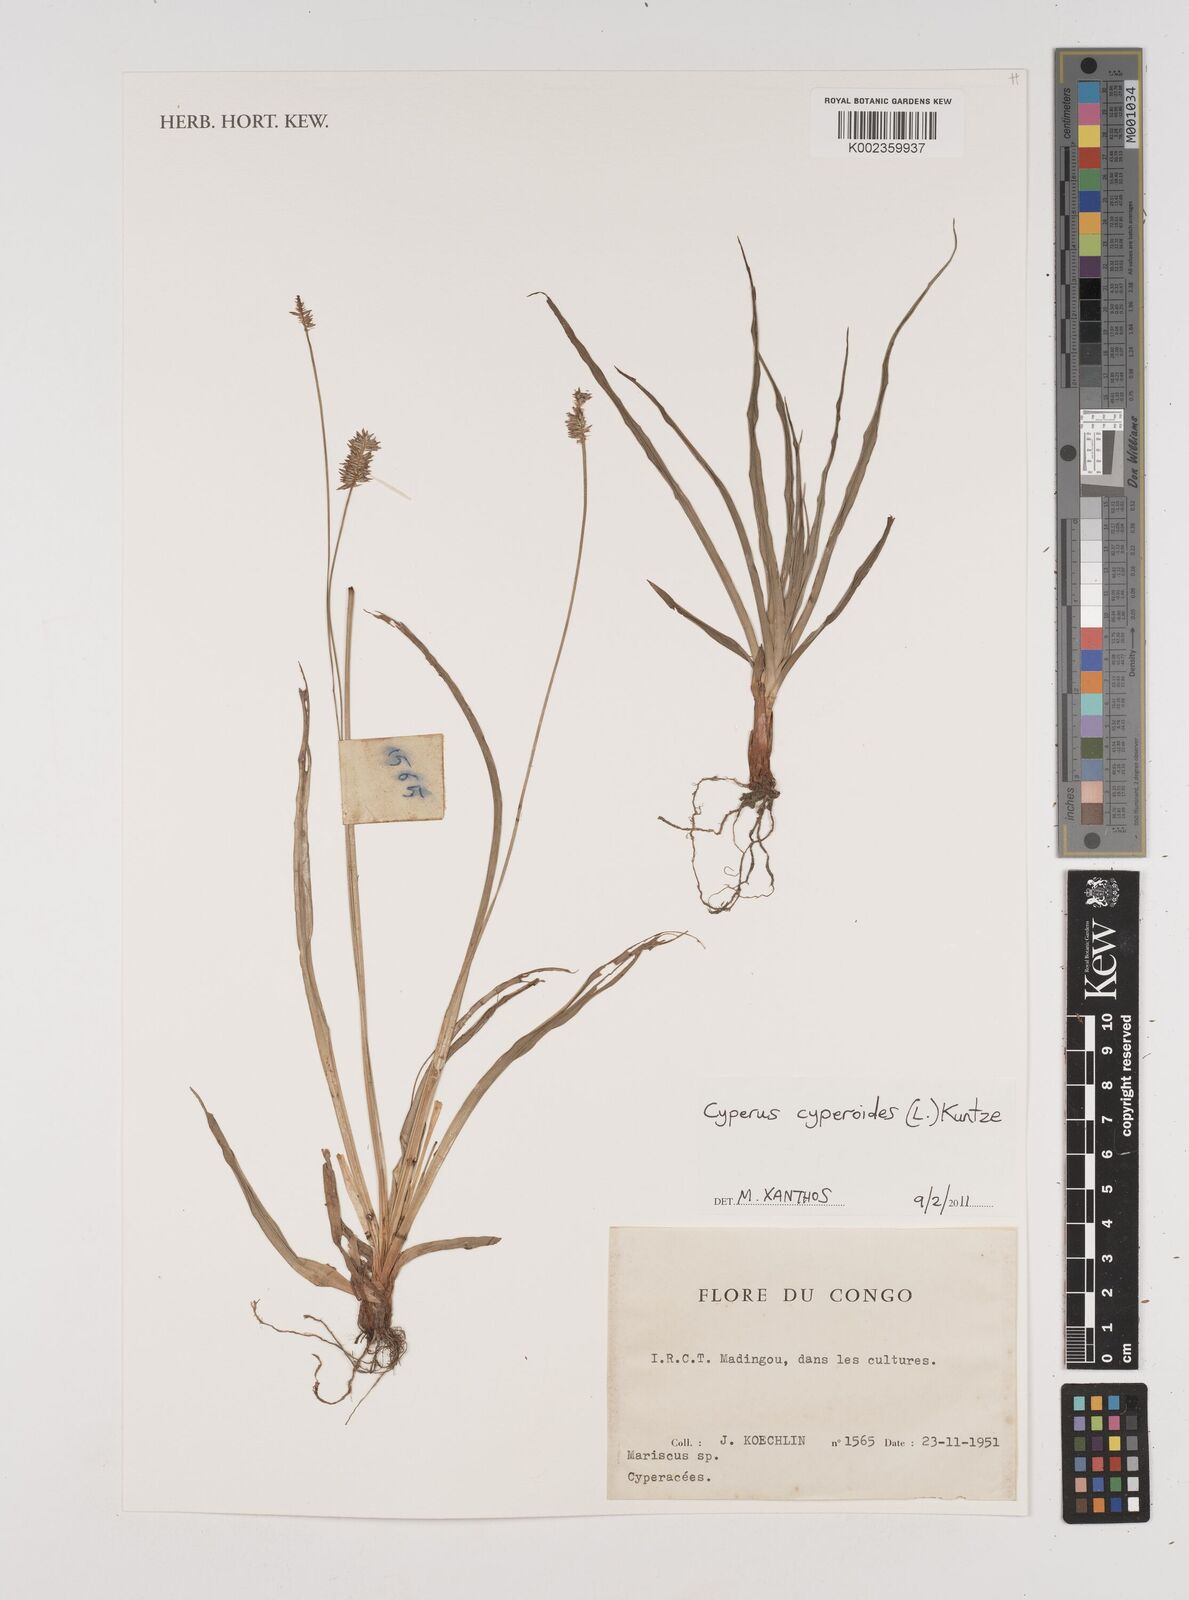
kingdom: Plantae
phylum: Tracheophyta
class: Liliopsida
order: Poales
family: Cyperaceae
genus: Cyperus
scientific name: Cyperus cyperoides
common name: Pacific island flat sedge
